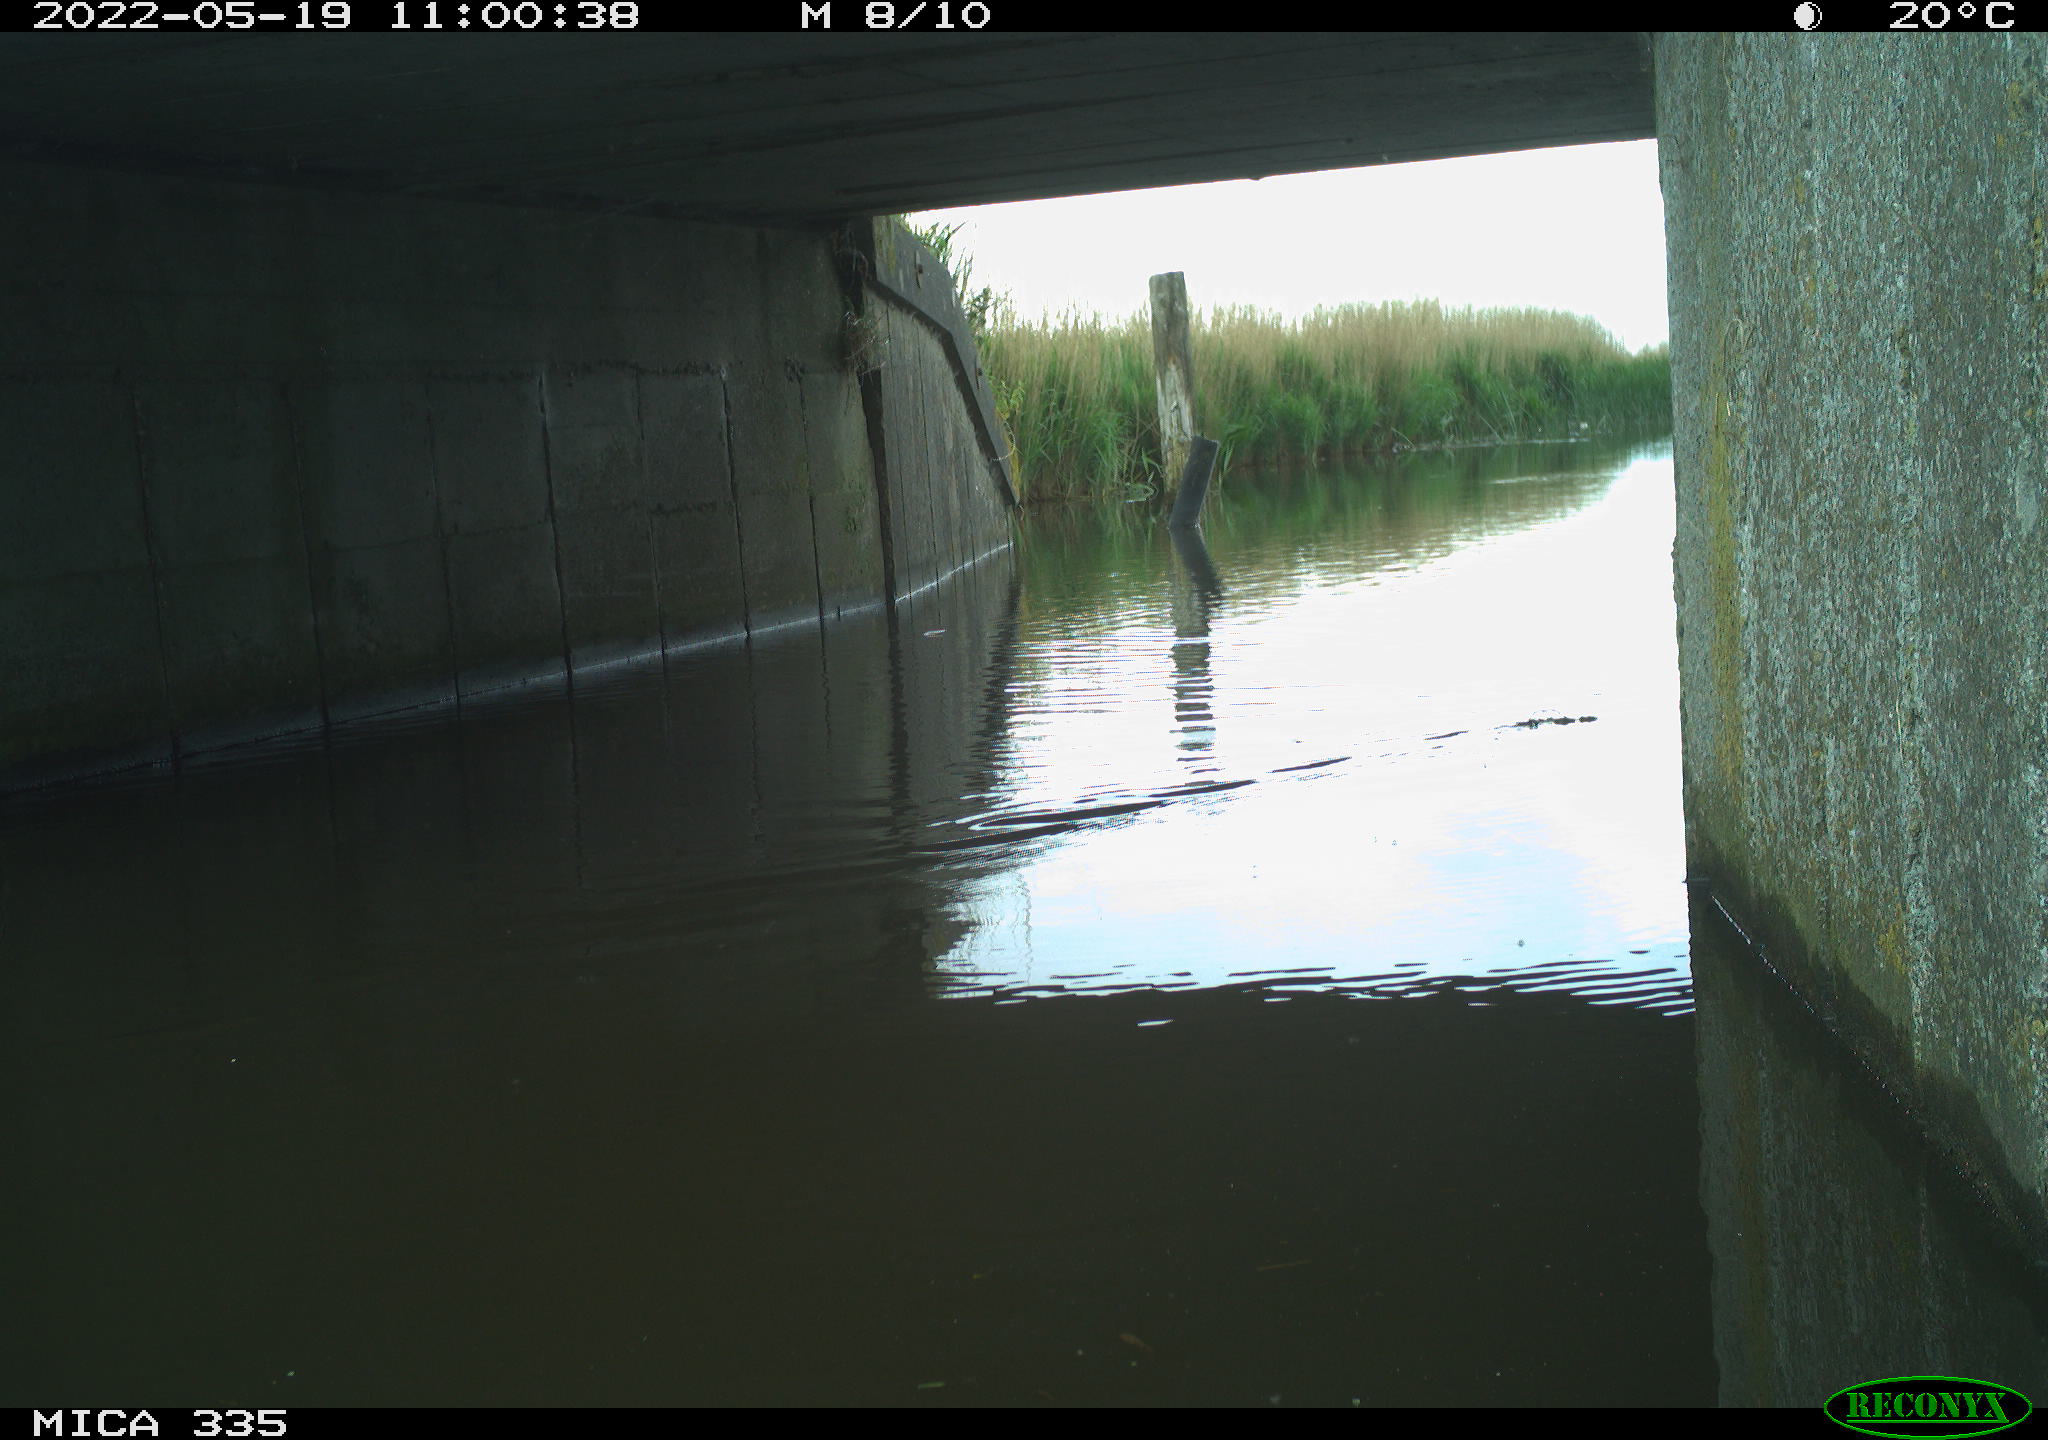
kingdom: Animalia
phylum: Chordata
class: Aves
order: Anseriformes
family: Anatidae
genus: Anas
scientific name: Anas platyrhynchos
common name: Mallard
